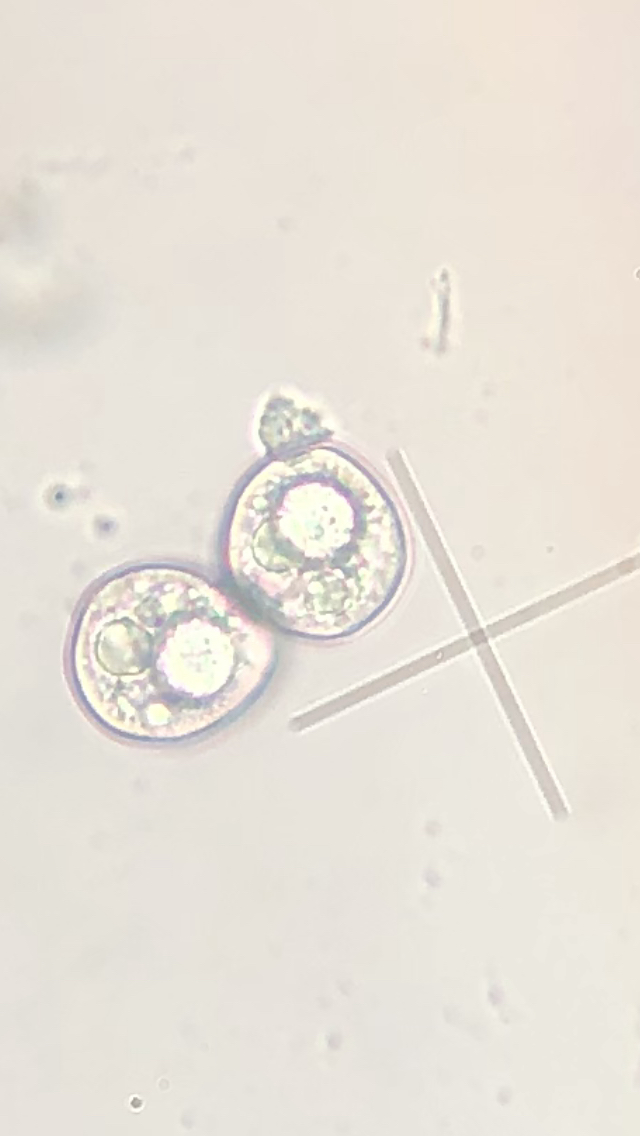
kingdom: Fungi
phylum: Basidiomycota
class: Pucciniomycetes
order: Pucciniales
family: Ochropsoraceae
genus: Ochropsora
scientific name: Ochropsora ariae
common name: anemone-okkerpletrust
